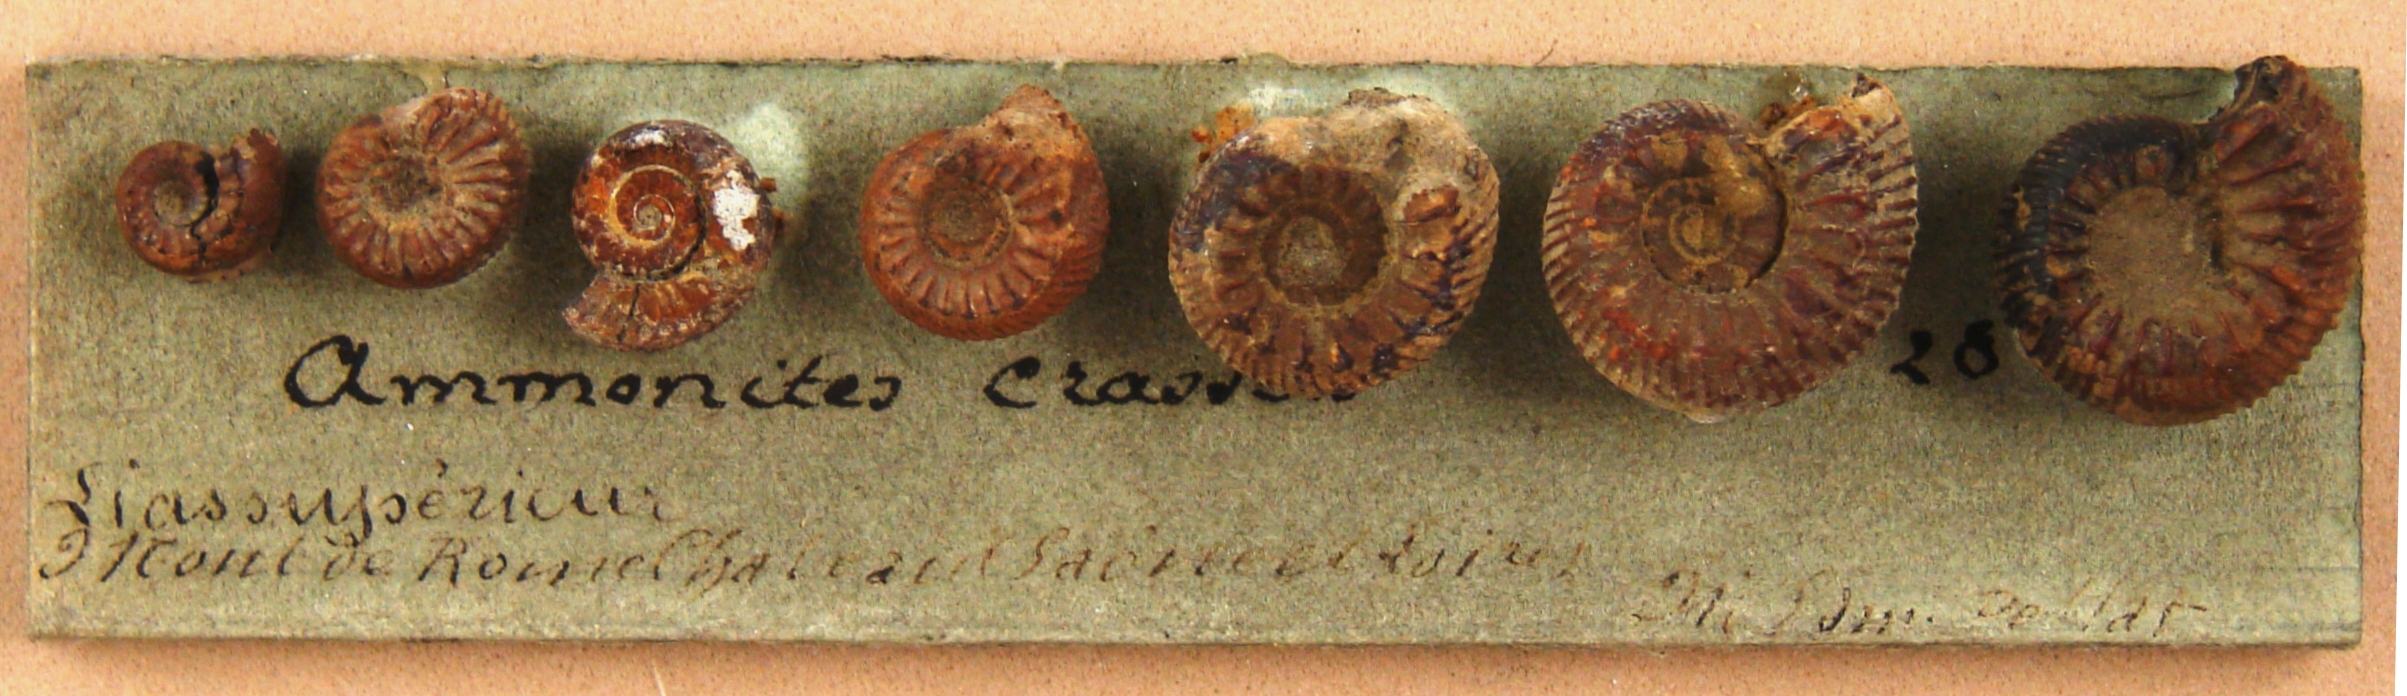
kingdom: Animalia
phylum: Mollusca
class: Cephalopoda
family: Dactylioceratidae
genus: Catacoeloceras
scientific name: Catacoeloceras crassum
